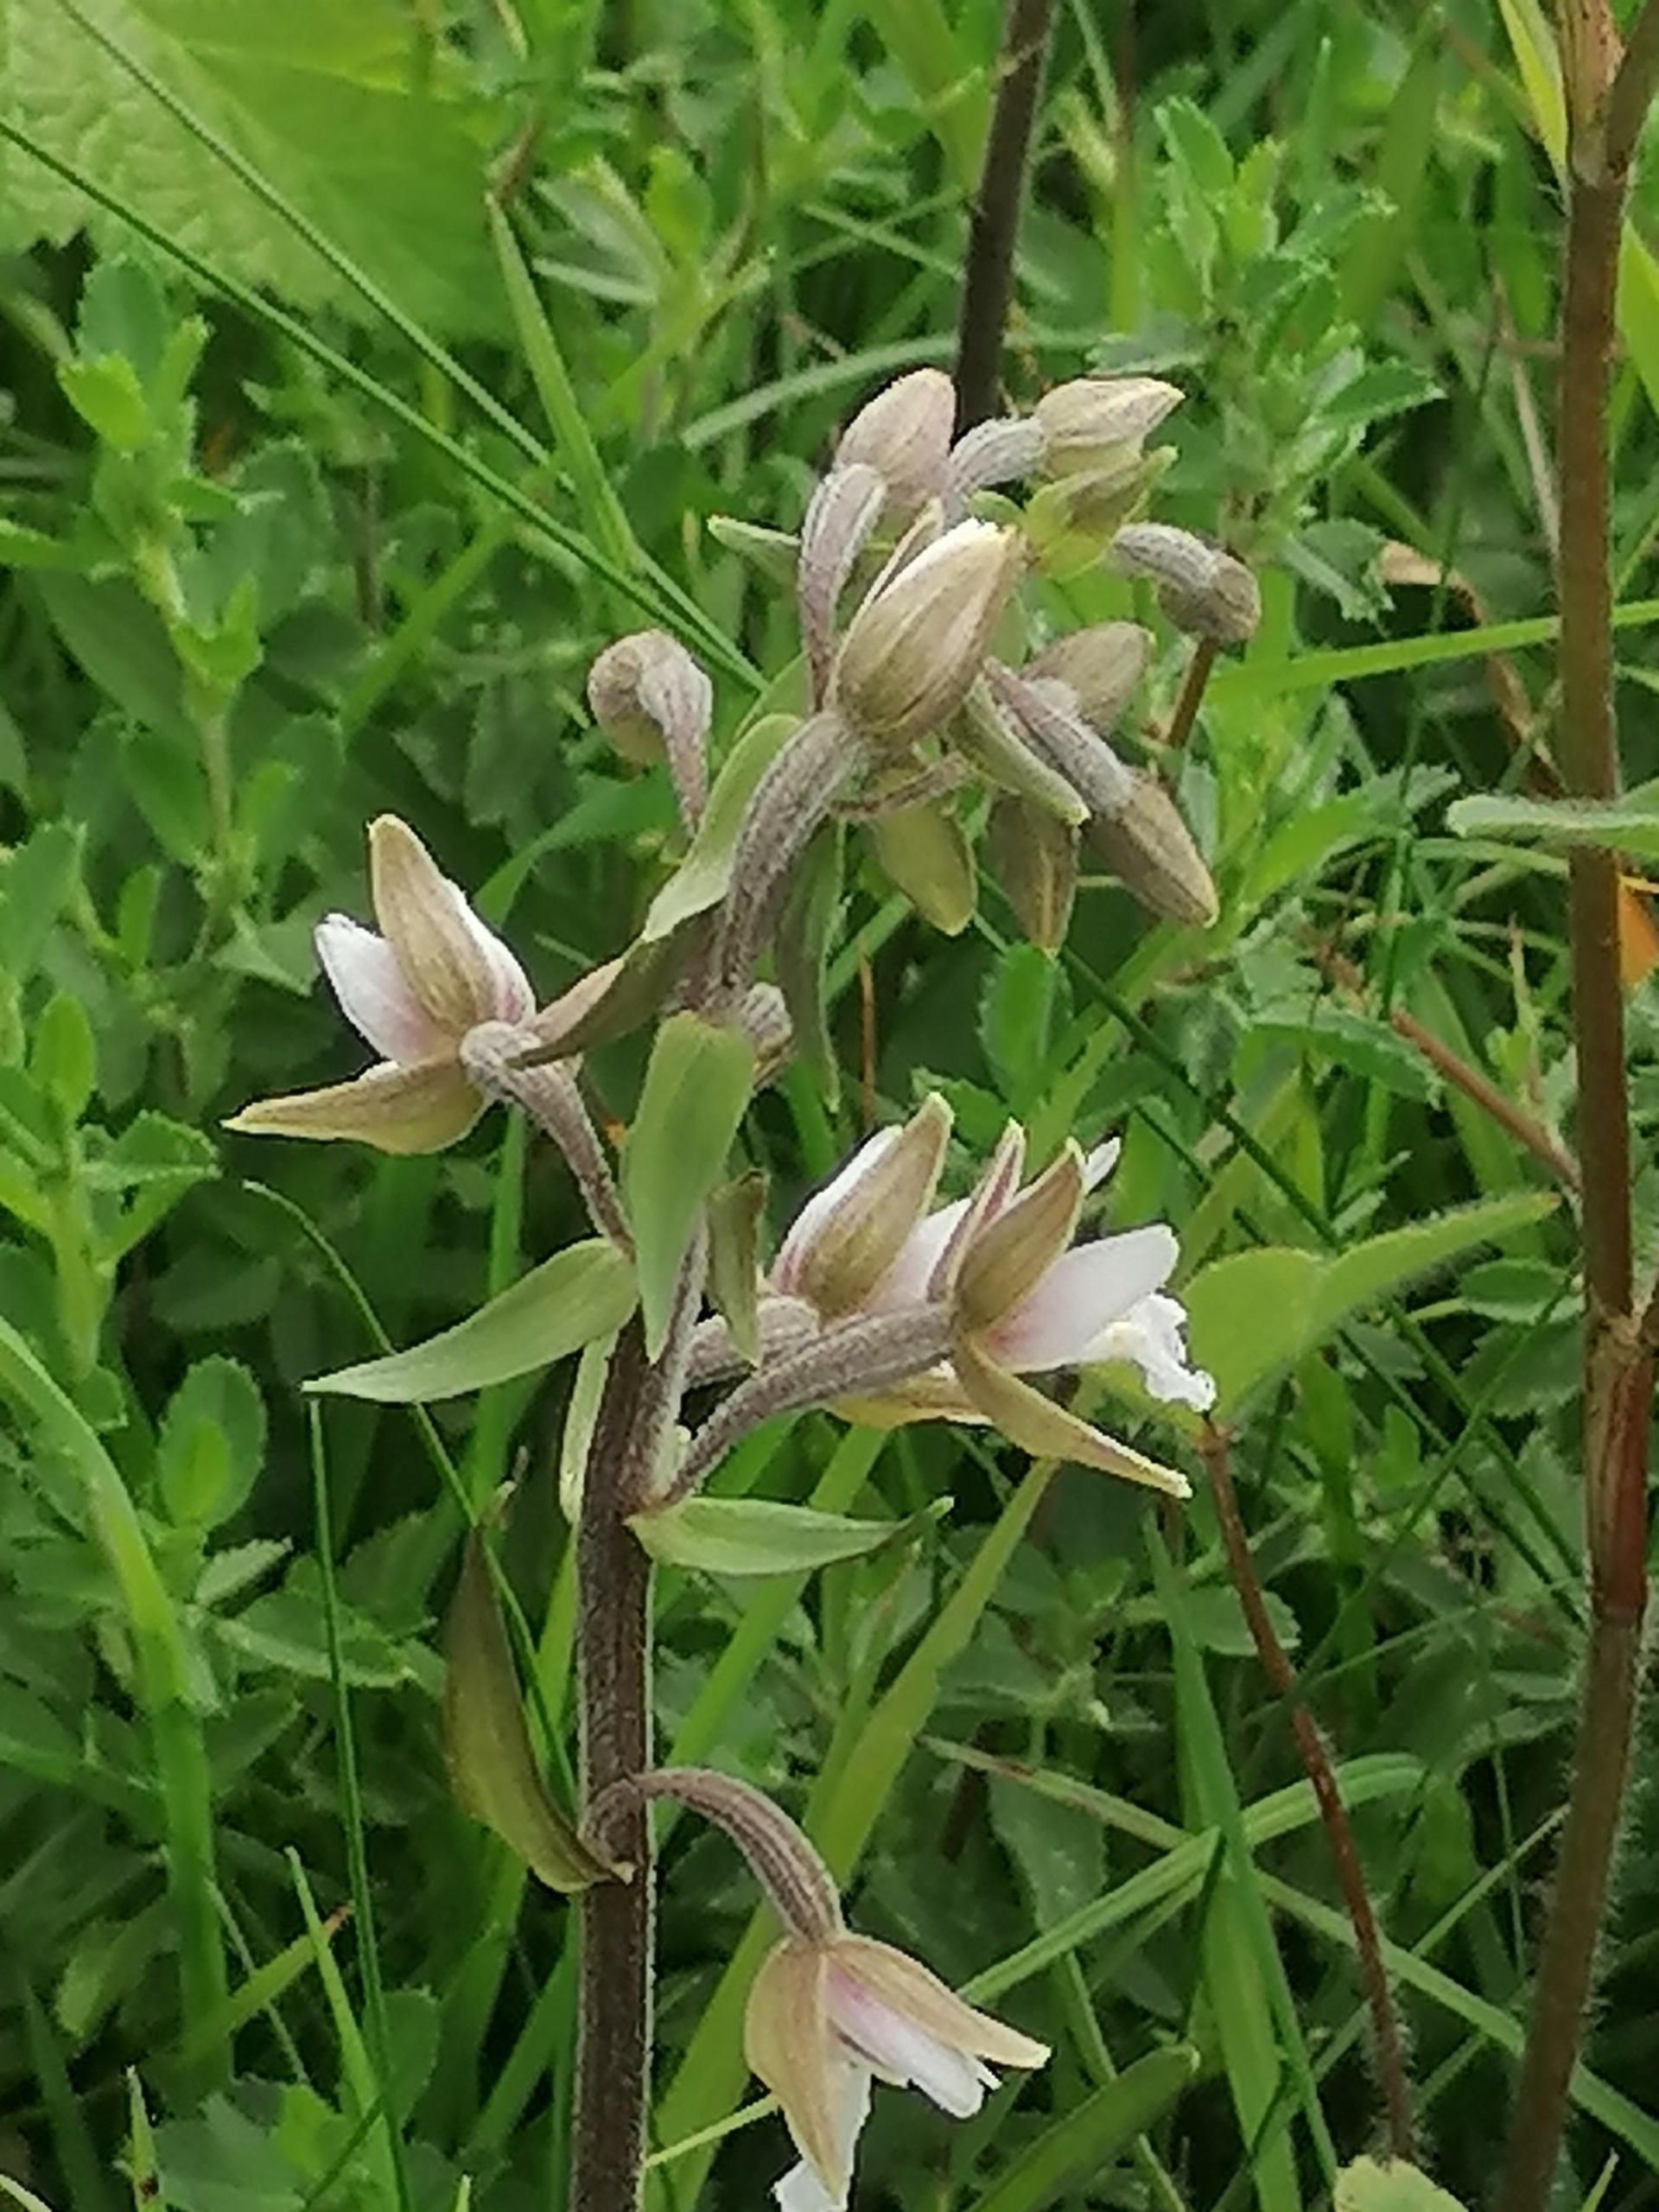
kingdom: Plantae
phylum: Tracheophyta
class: Liliopsida
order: Asparagales
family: Orchidaceae
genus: Epipactis
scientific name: Epipactis palustris
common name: Sump-hullæbe
